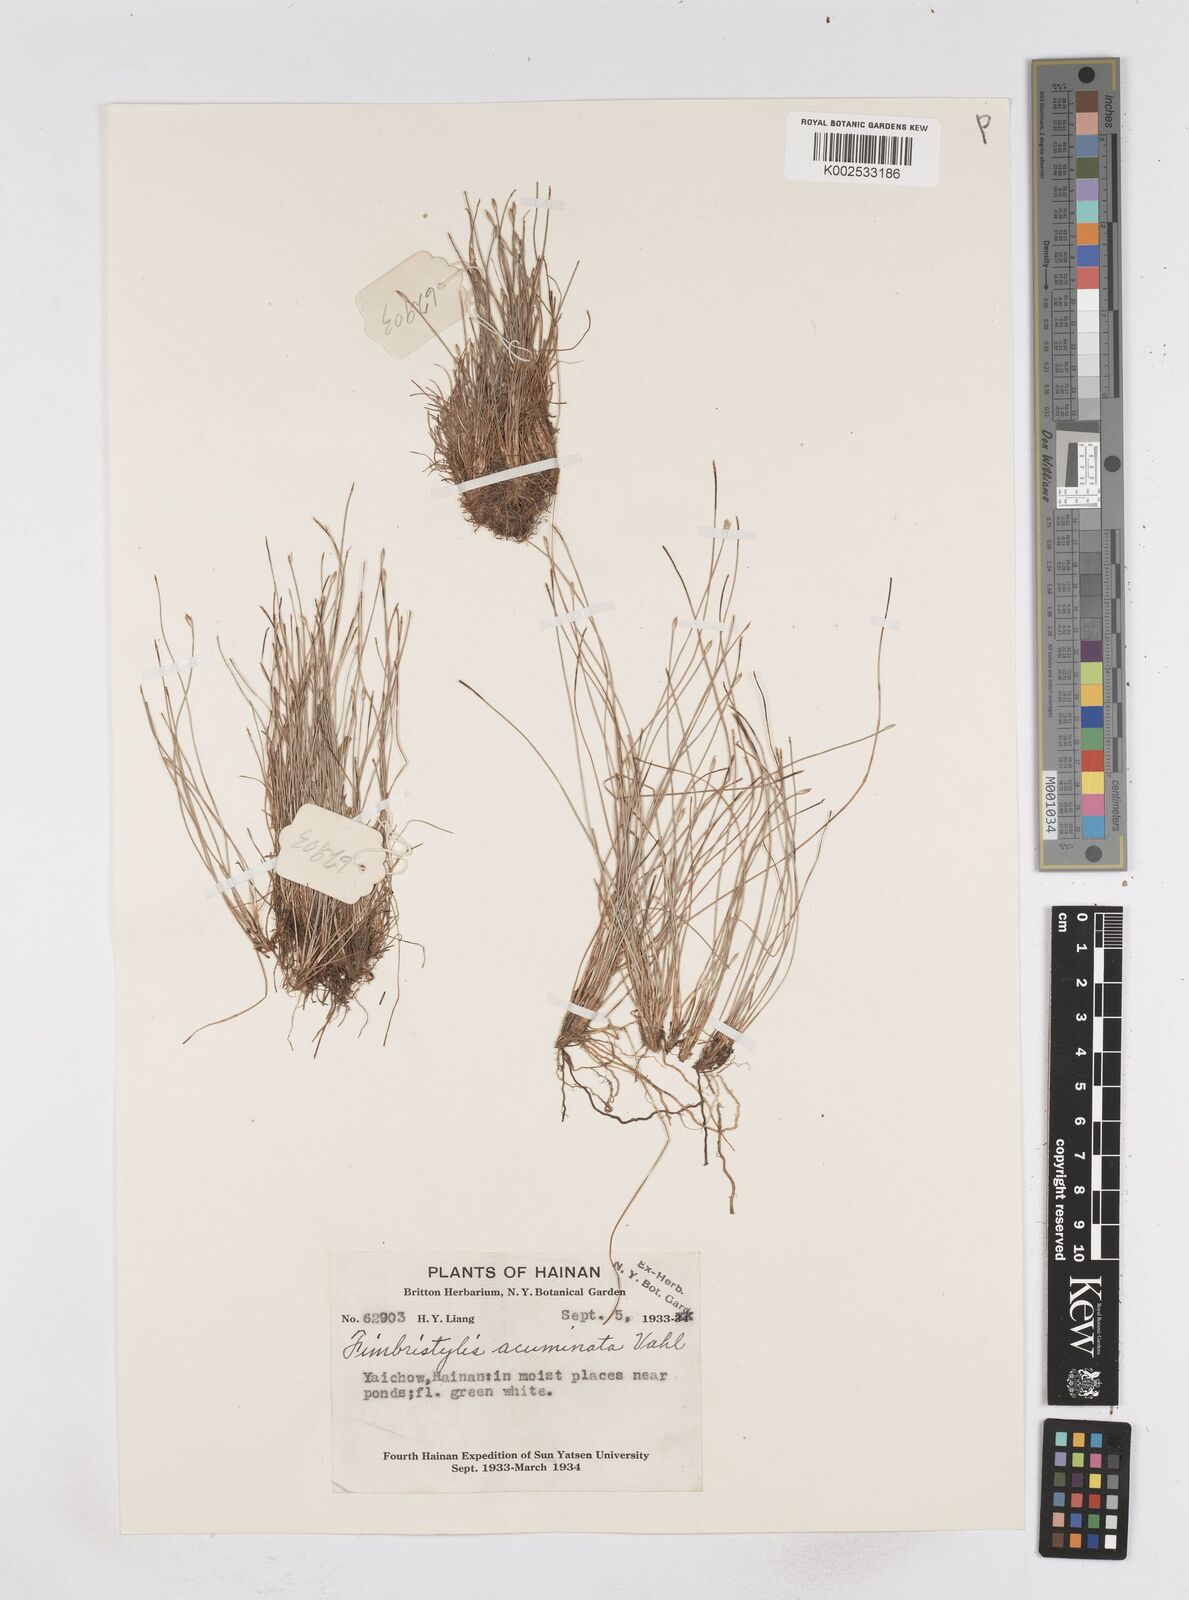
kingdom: Plantae
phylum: Tracheophyta
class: Liliopsida
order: Poales
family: Cyperaceae
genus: Fimbristylis
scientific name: Fimbristylis acuminata
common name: Pointed fimbristylis
